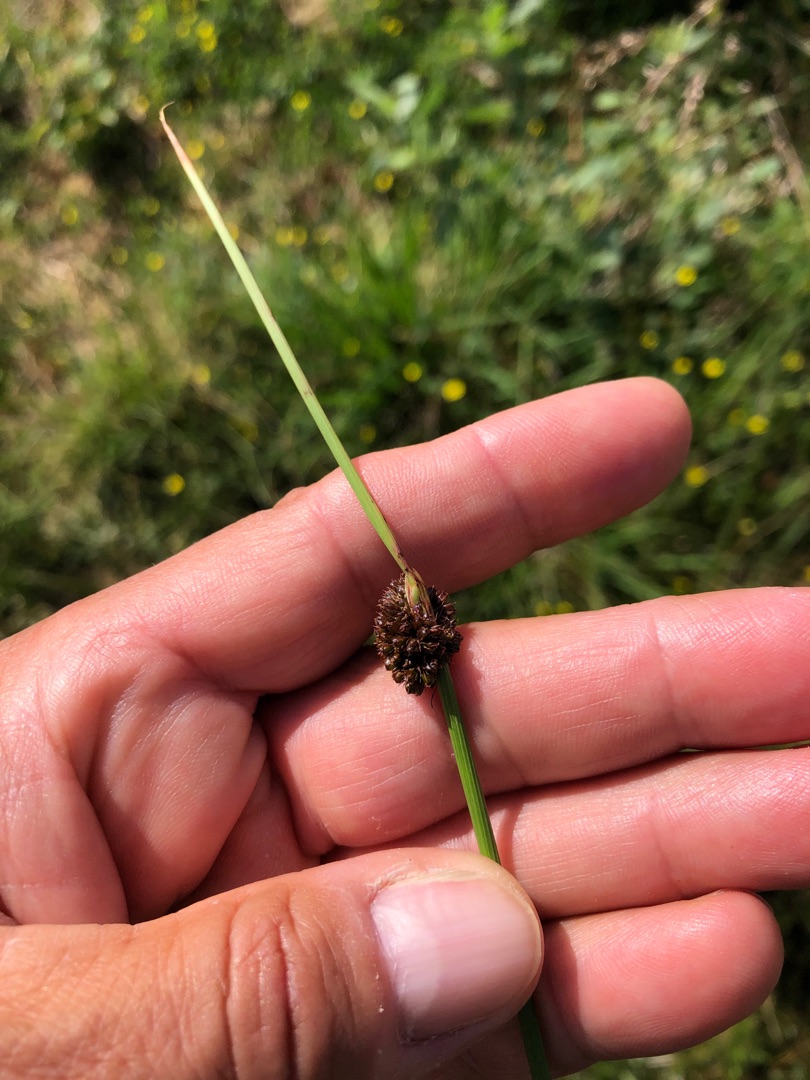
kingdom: Plantae
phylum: Tracheophyta
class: Liliopsida
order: Poales
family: Juncaceae
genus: Juncus
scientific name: Juncus conglomeratus
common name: Knop-siv
